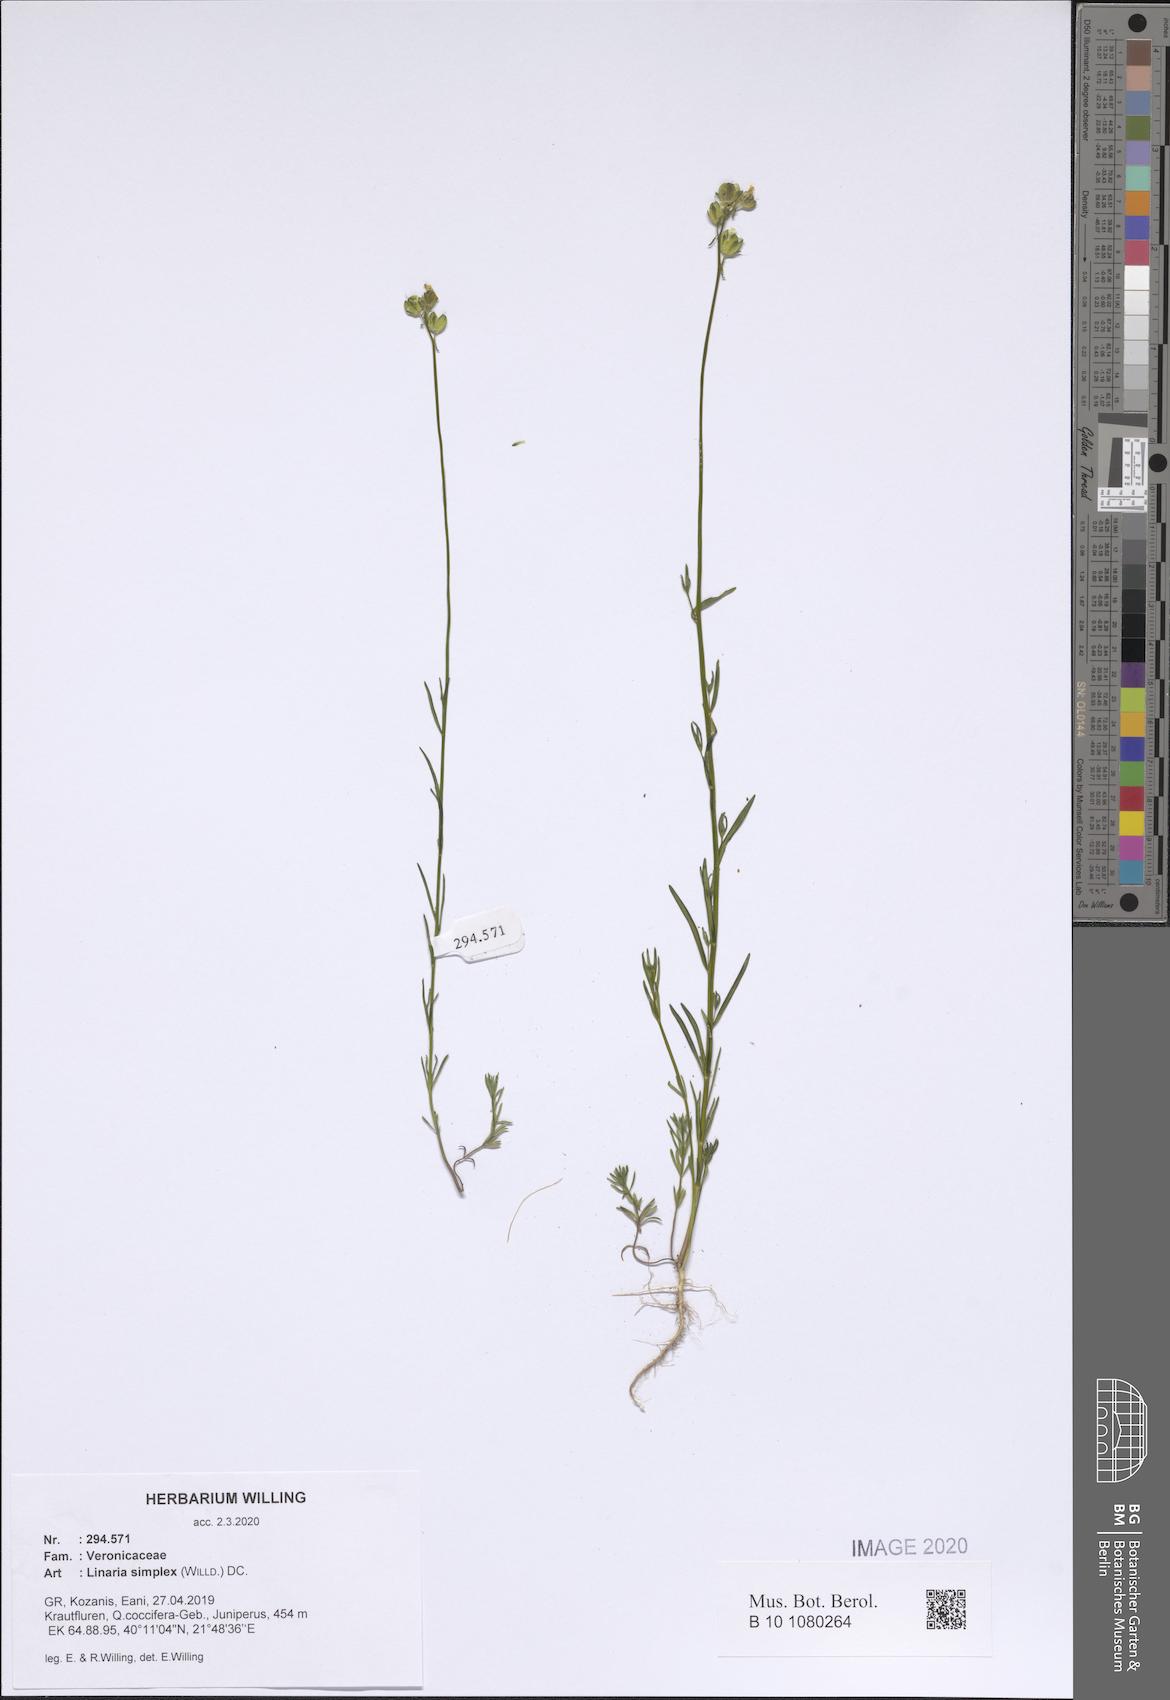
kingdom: Plantae
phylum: Tracheophyta
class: Magnoliopsida
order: Lamiales
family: Plantaginaceae
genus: Linaria
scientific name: Linaria simplex
